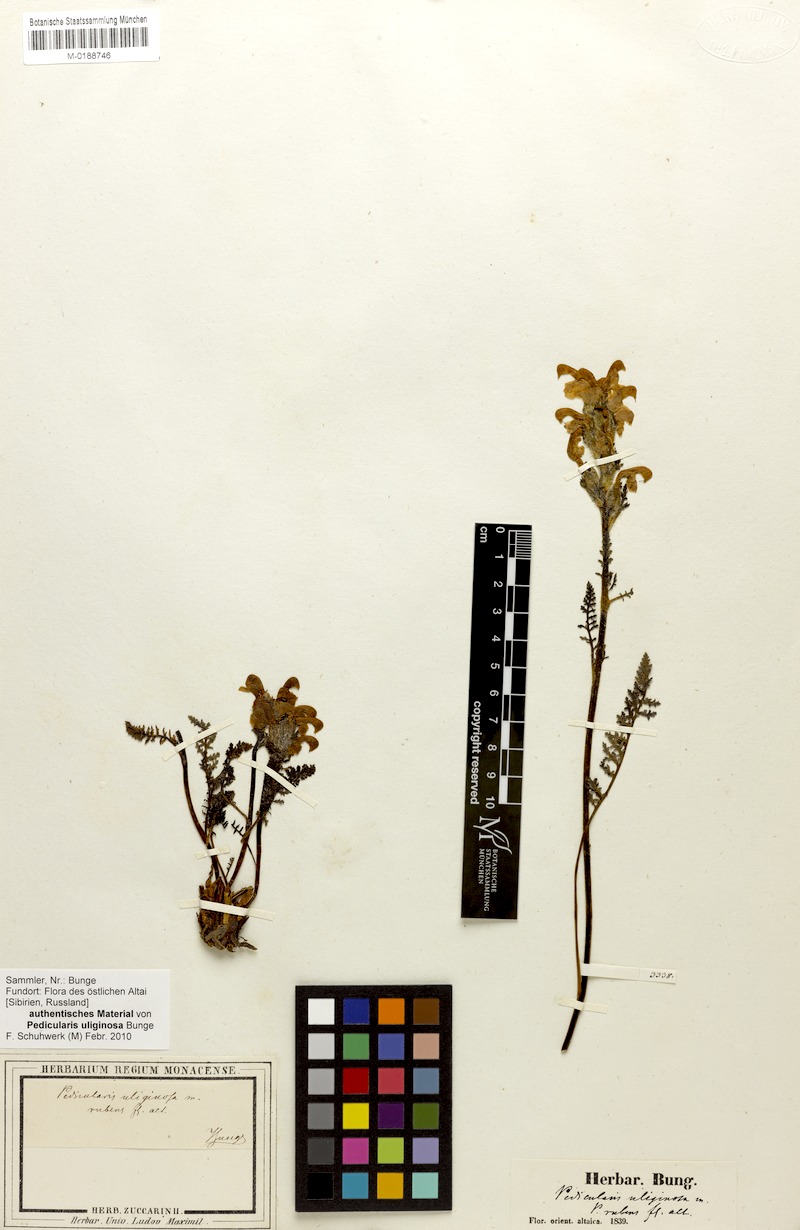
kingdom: Plantae
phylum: Tracheophyta
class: Magnoliopsida
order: Lamiales
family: Orobanchaceae
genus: Pedicularis
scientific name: Pedicularis uliginosa
